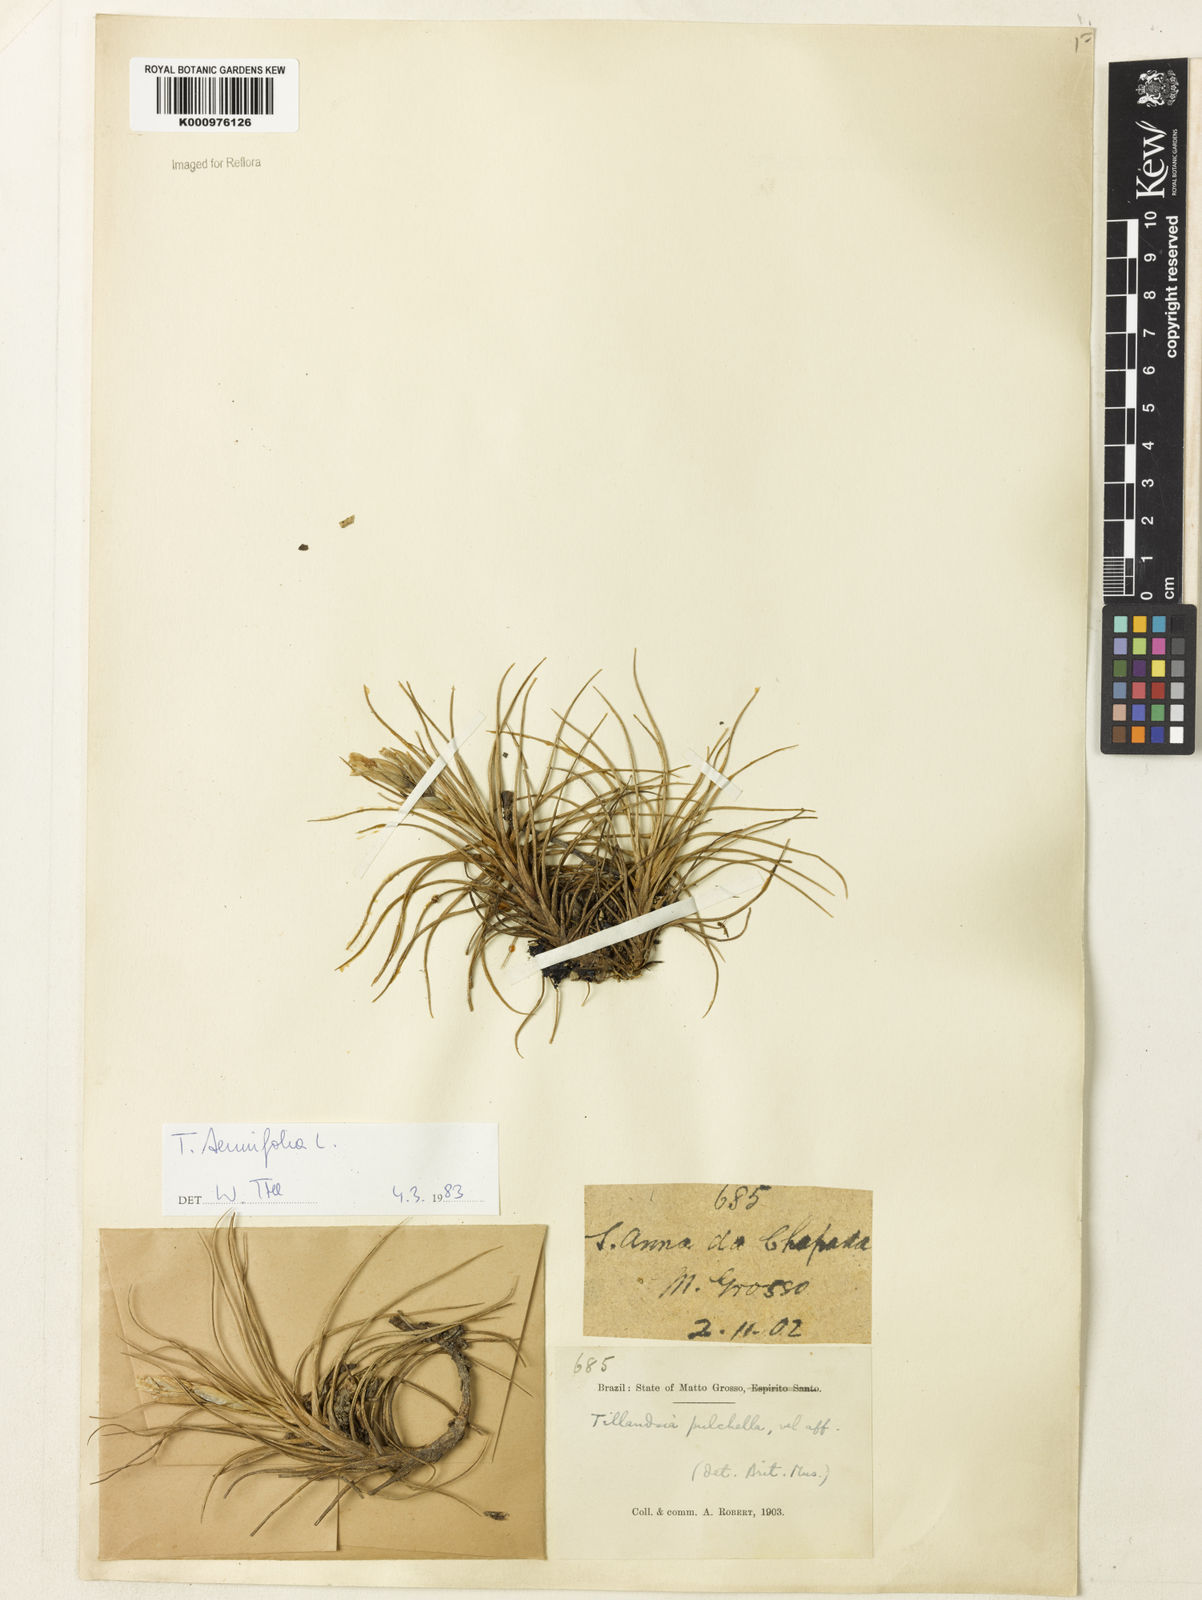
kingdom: Plantae
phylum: Tracheophyta
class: Liliopsida
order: Poales
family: Bromeliaceae
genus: Tillandsia
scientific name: Tillandsia tenuifolia
